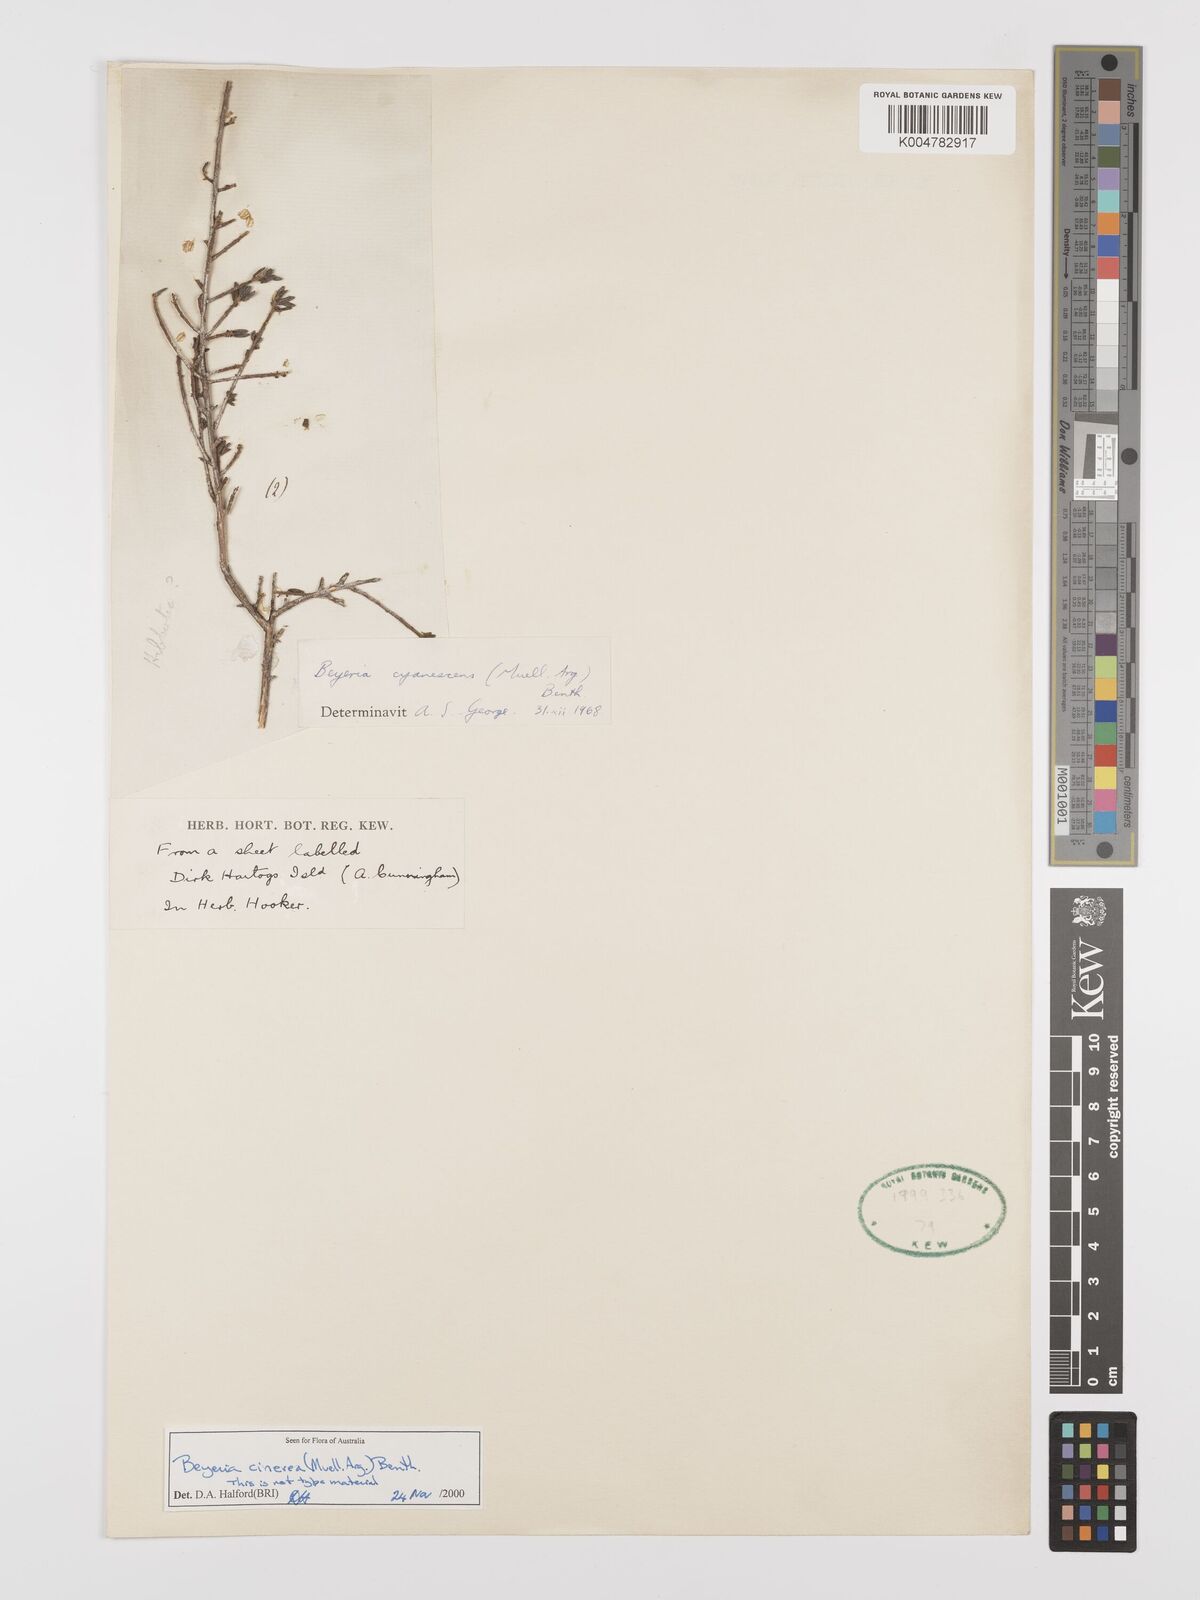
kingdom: Plantae
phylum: Tracheophyta
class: Magnoliopsida
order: Malpighiales
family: Euphorbiaceae
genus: Beyeria
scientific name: Beyeria cinerea
